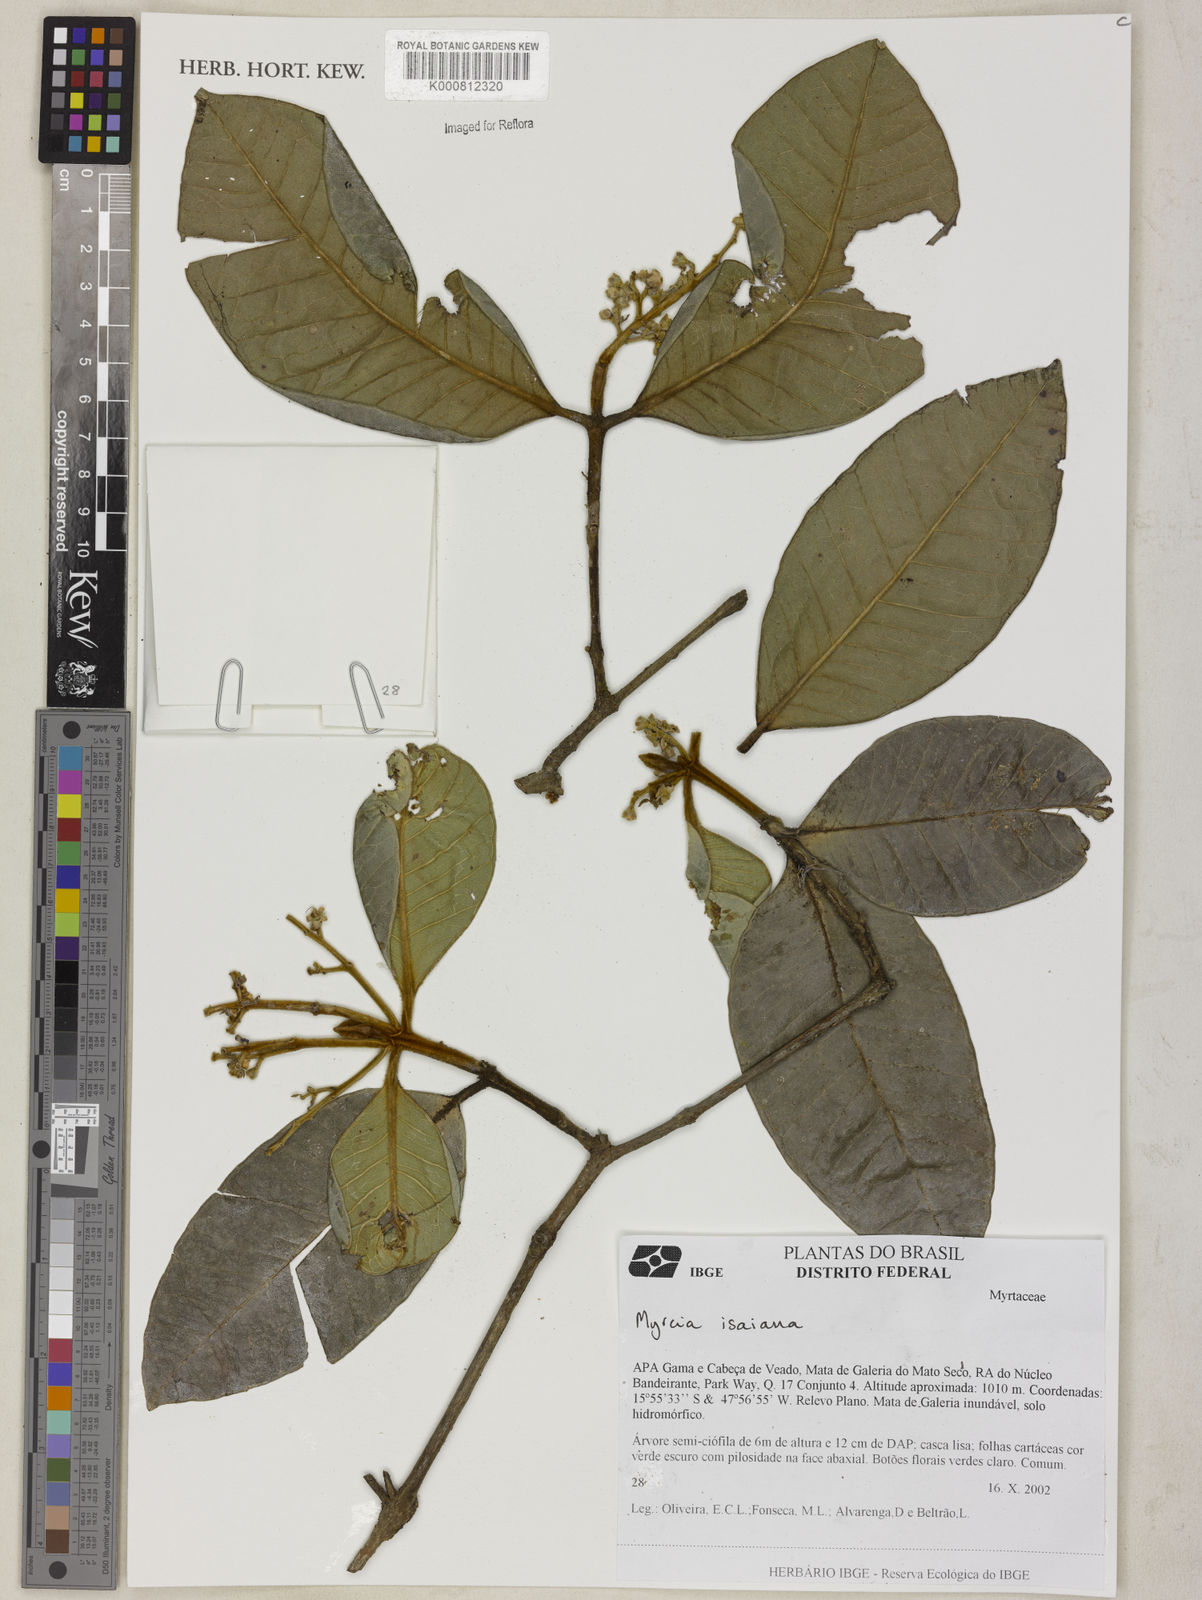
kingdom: Plantae
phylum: Tracheophyta
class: Magnoliopsida
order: Myrtales
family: Myrtaceae
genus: Myrcia
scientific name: Myrcia isaiana
